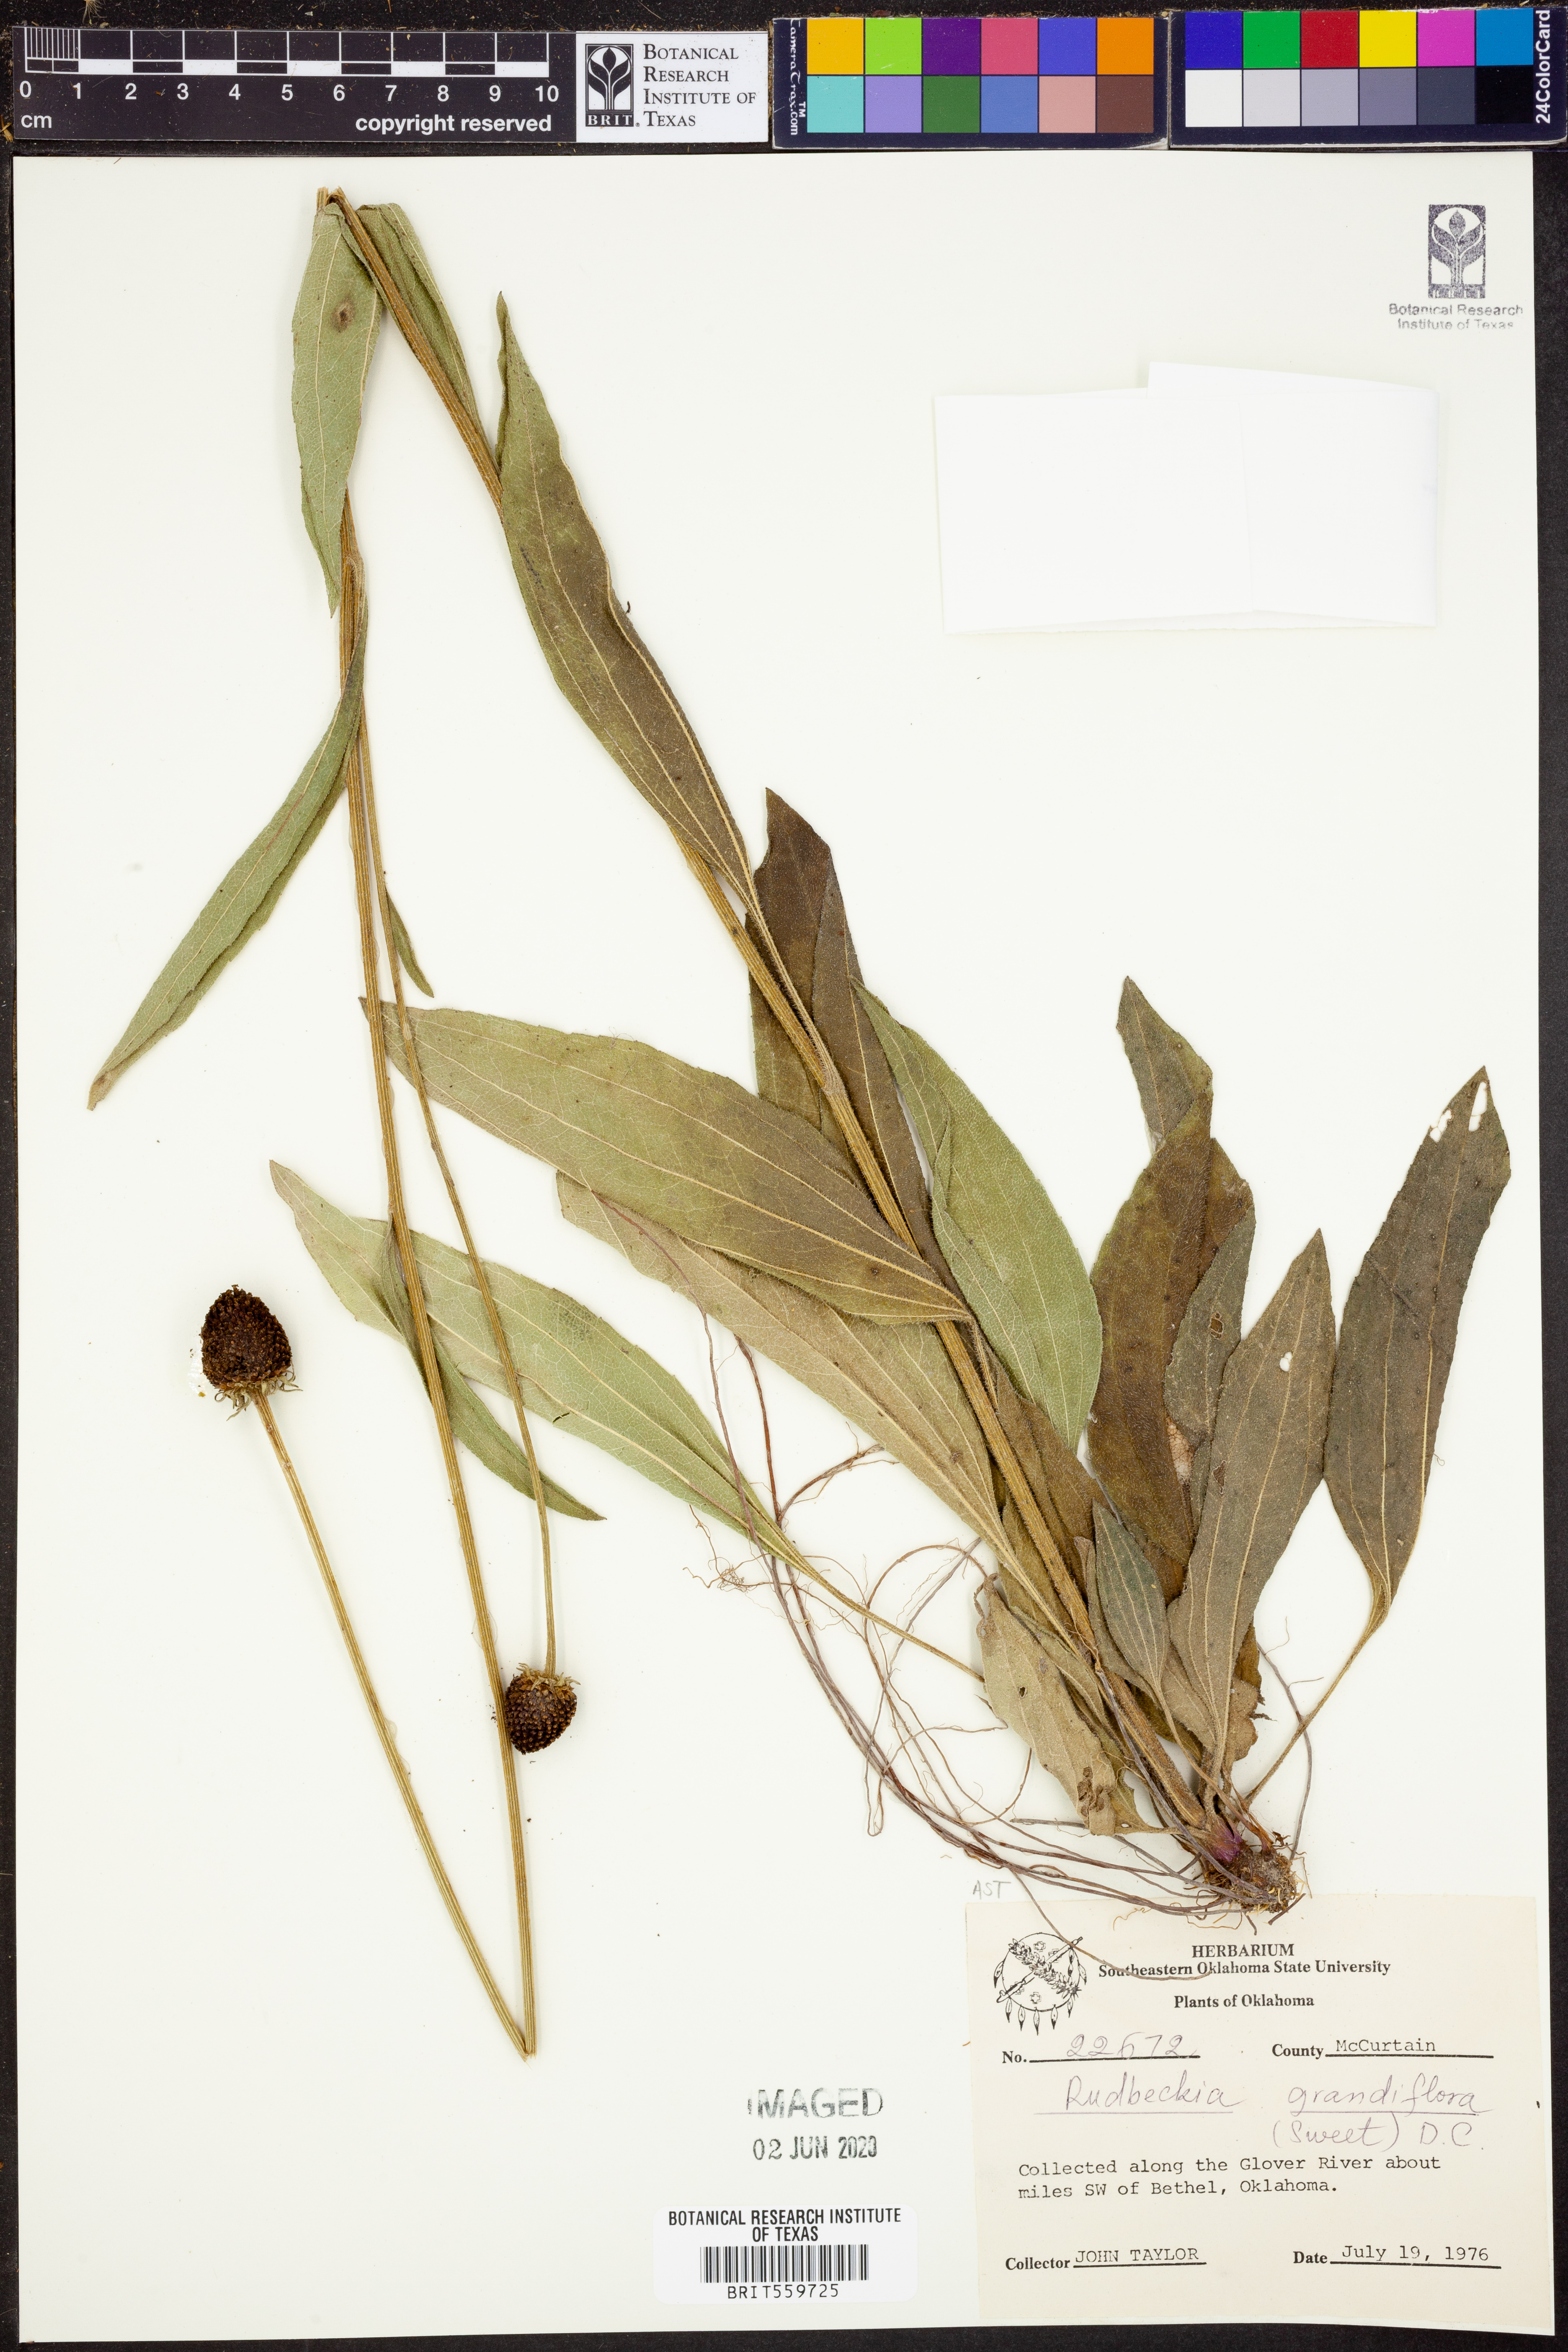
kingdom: Plantae
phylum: Tracheophyta
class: Magnoliopsida
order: Asterales
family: Asteraceae
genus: Rudbeckia
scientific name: Rudbeckia grandiflora
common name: Large-flowered coneflower
